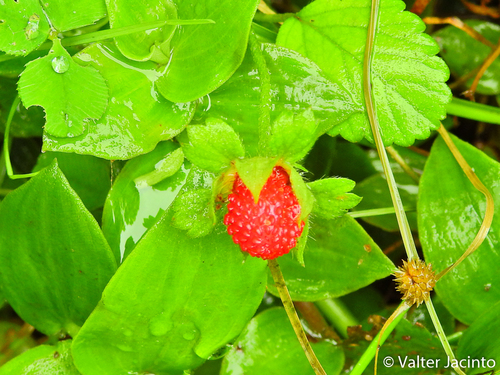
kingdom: Plantae
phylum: Tracheophyta
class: Magnoliopsida
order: Rosales
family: Rosaceae
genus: Potentilla
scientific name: Potentilla indica
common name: Yellow-flowered strawberry
